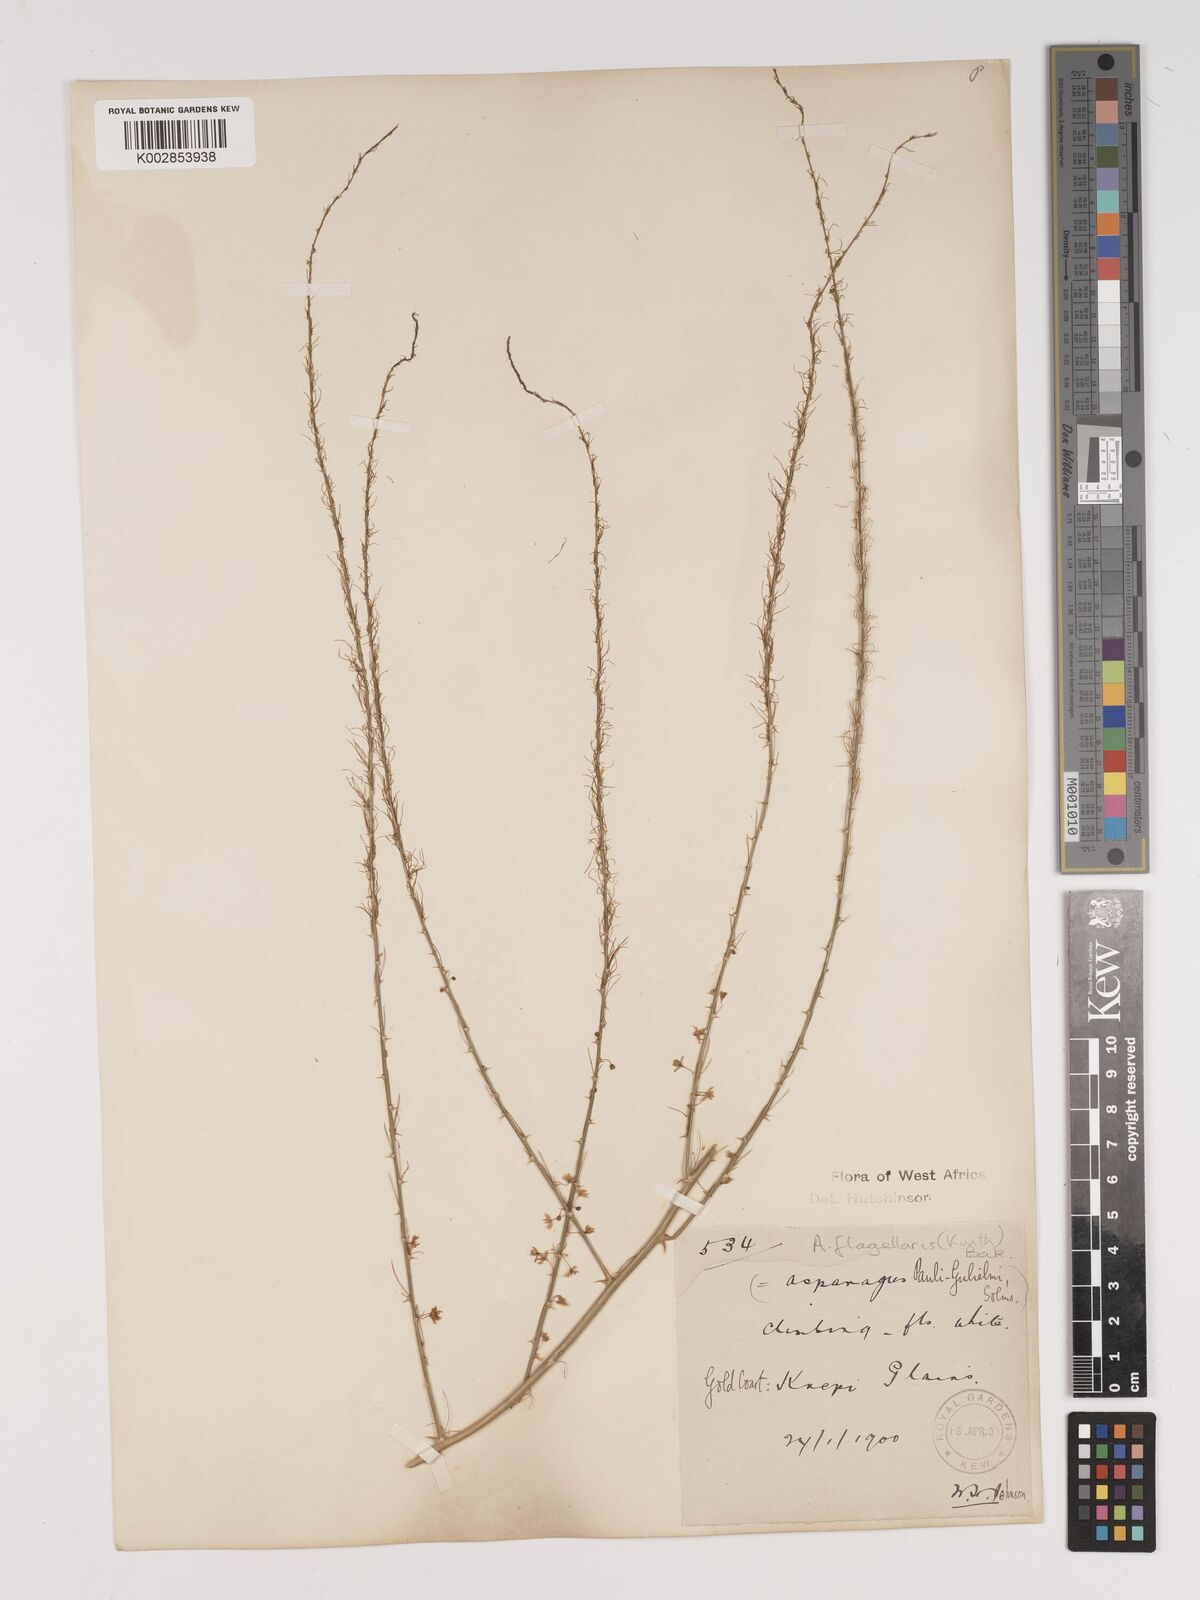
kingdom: Plantae
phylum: Tracheophyta
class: Liliopsida
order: Asparagales
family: Asparagaceae
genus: Asparagus
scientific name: Asparagus flagellaris
